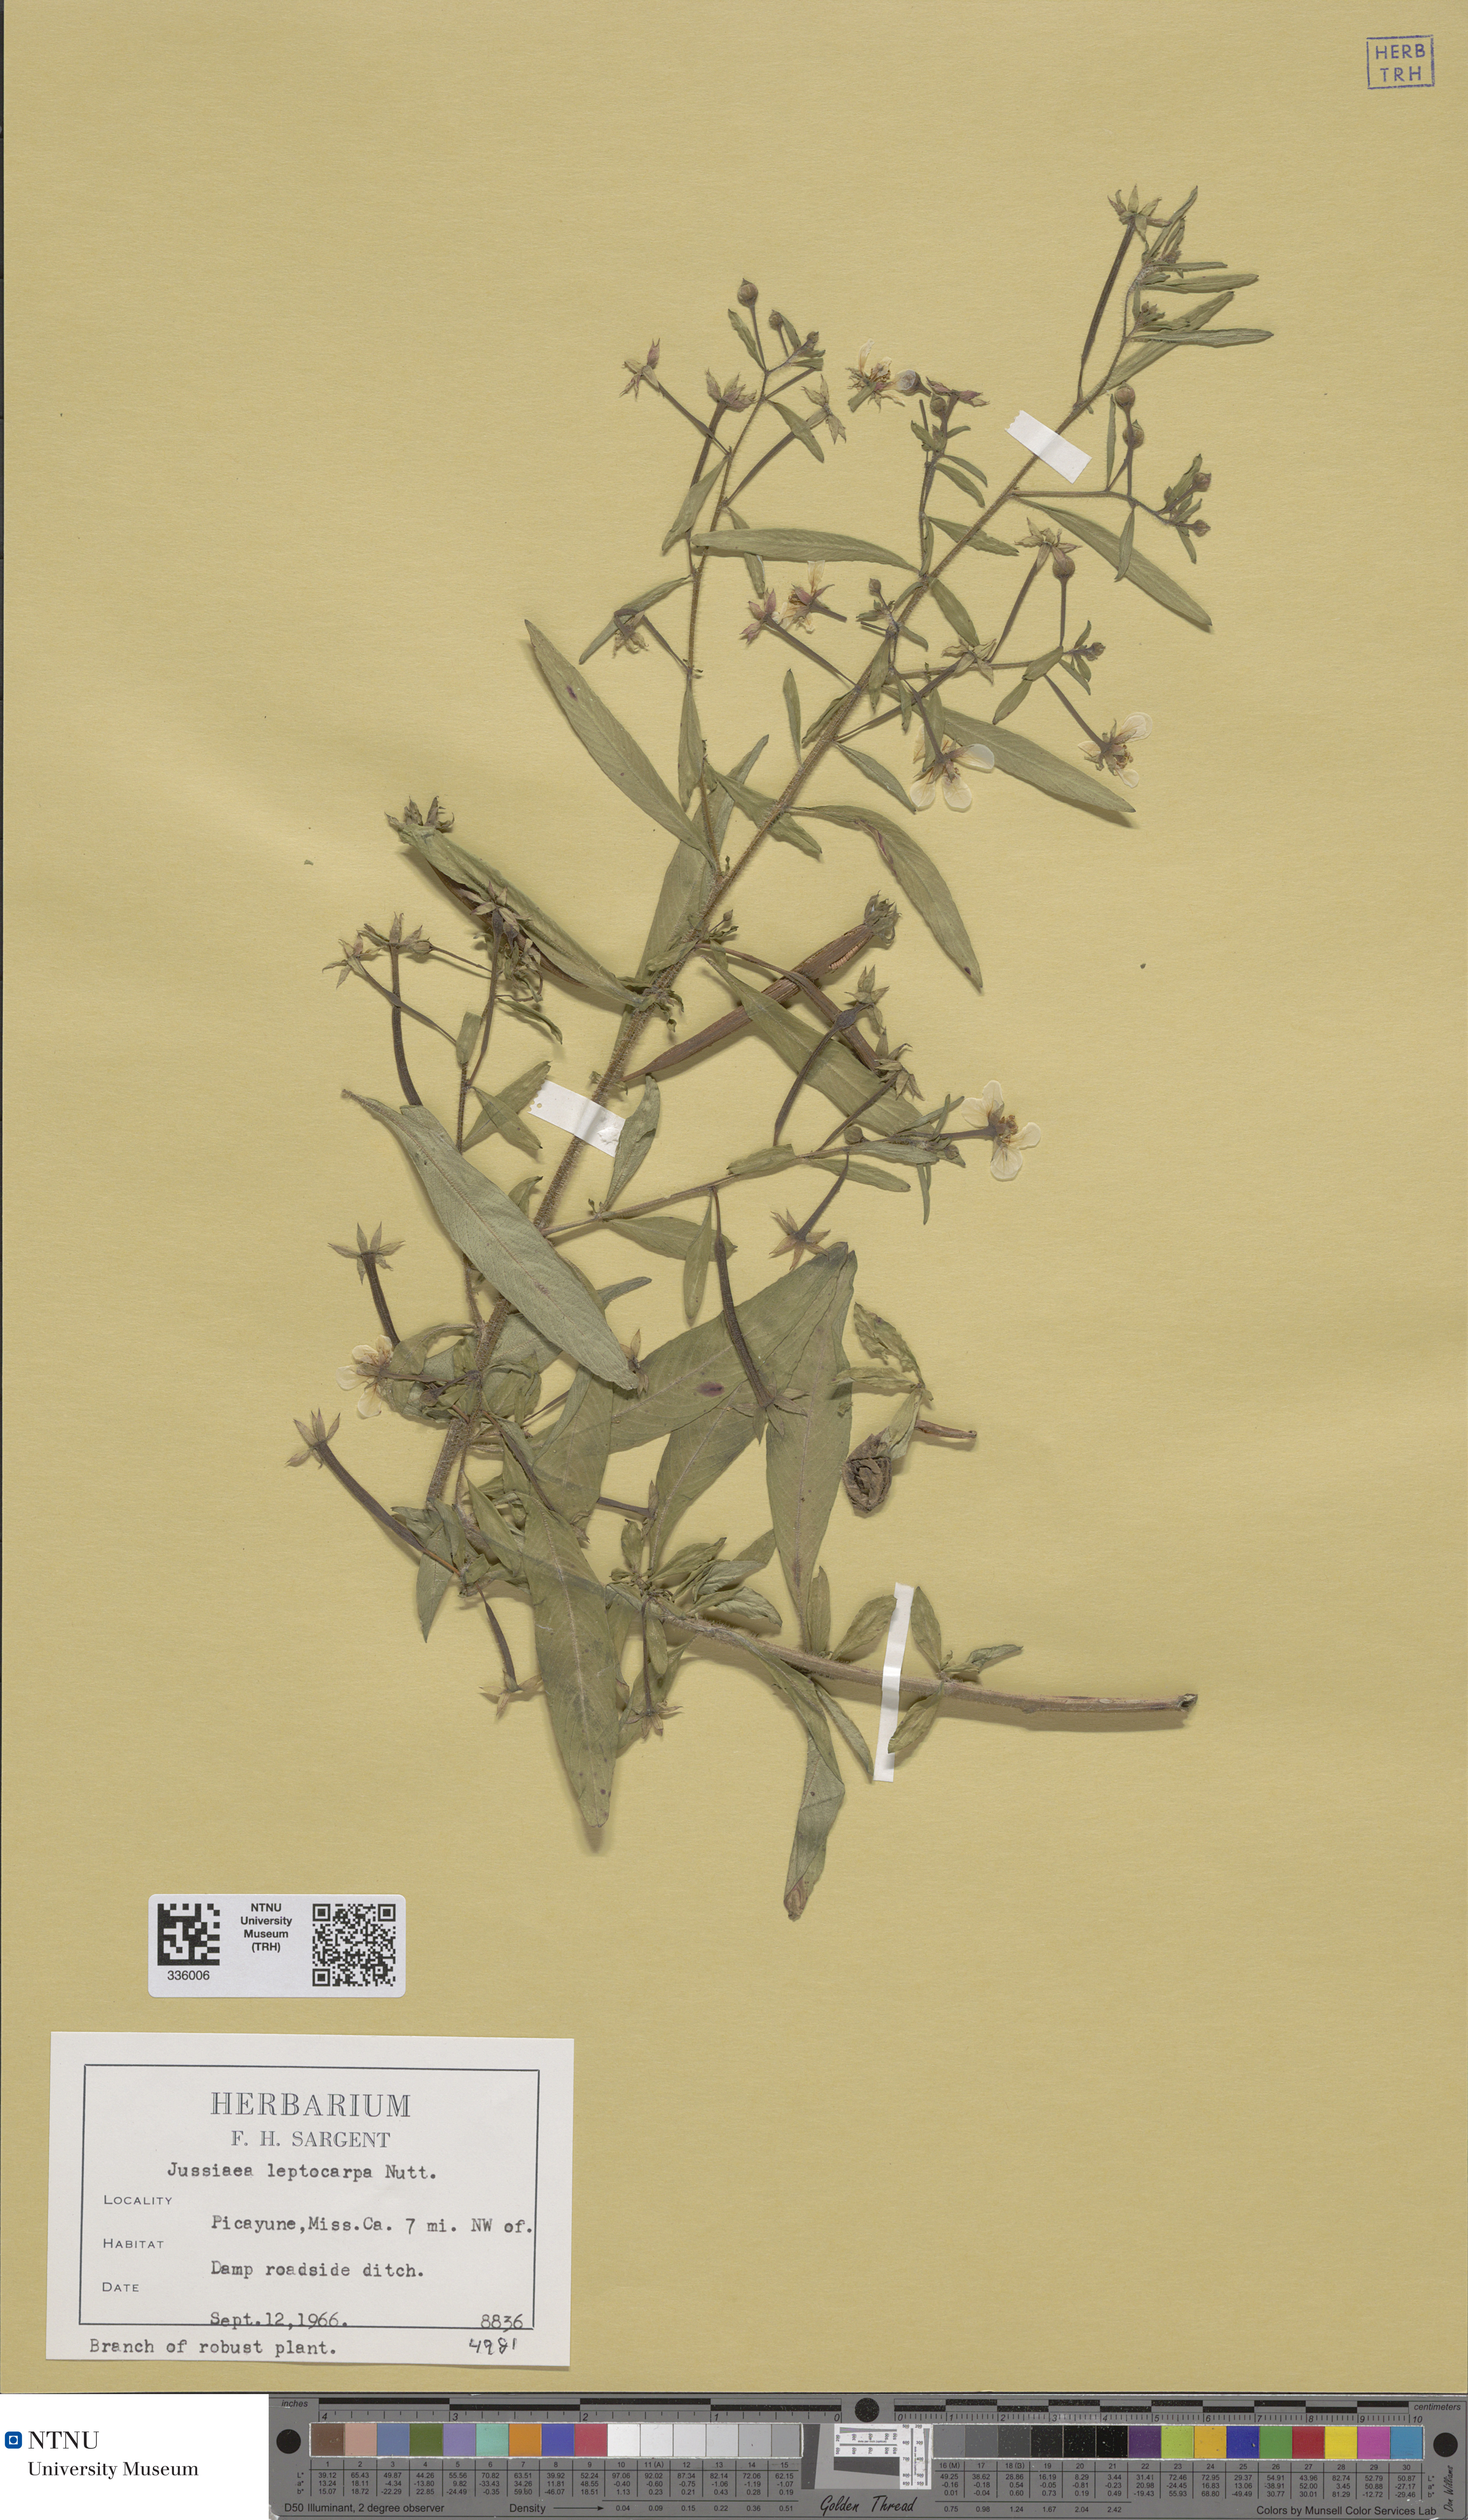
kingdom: Plantae
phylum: Tracheophyta
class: Magnoliopsida
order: Myrtales
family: Onagraceae
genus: Ludwigia
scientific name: Ludwigia leptocarpa
